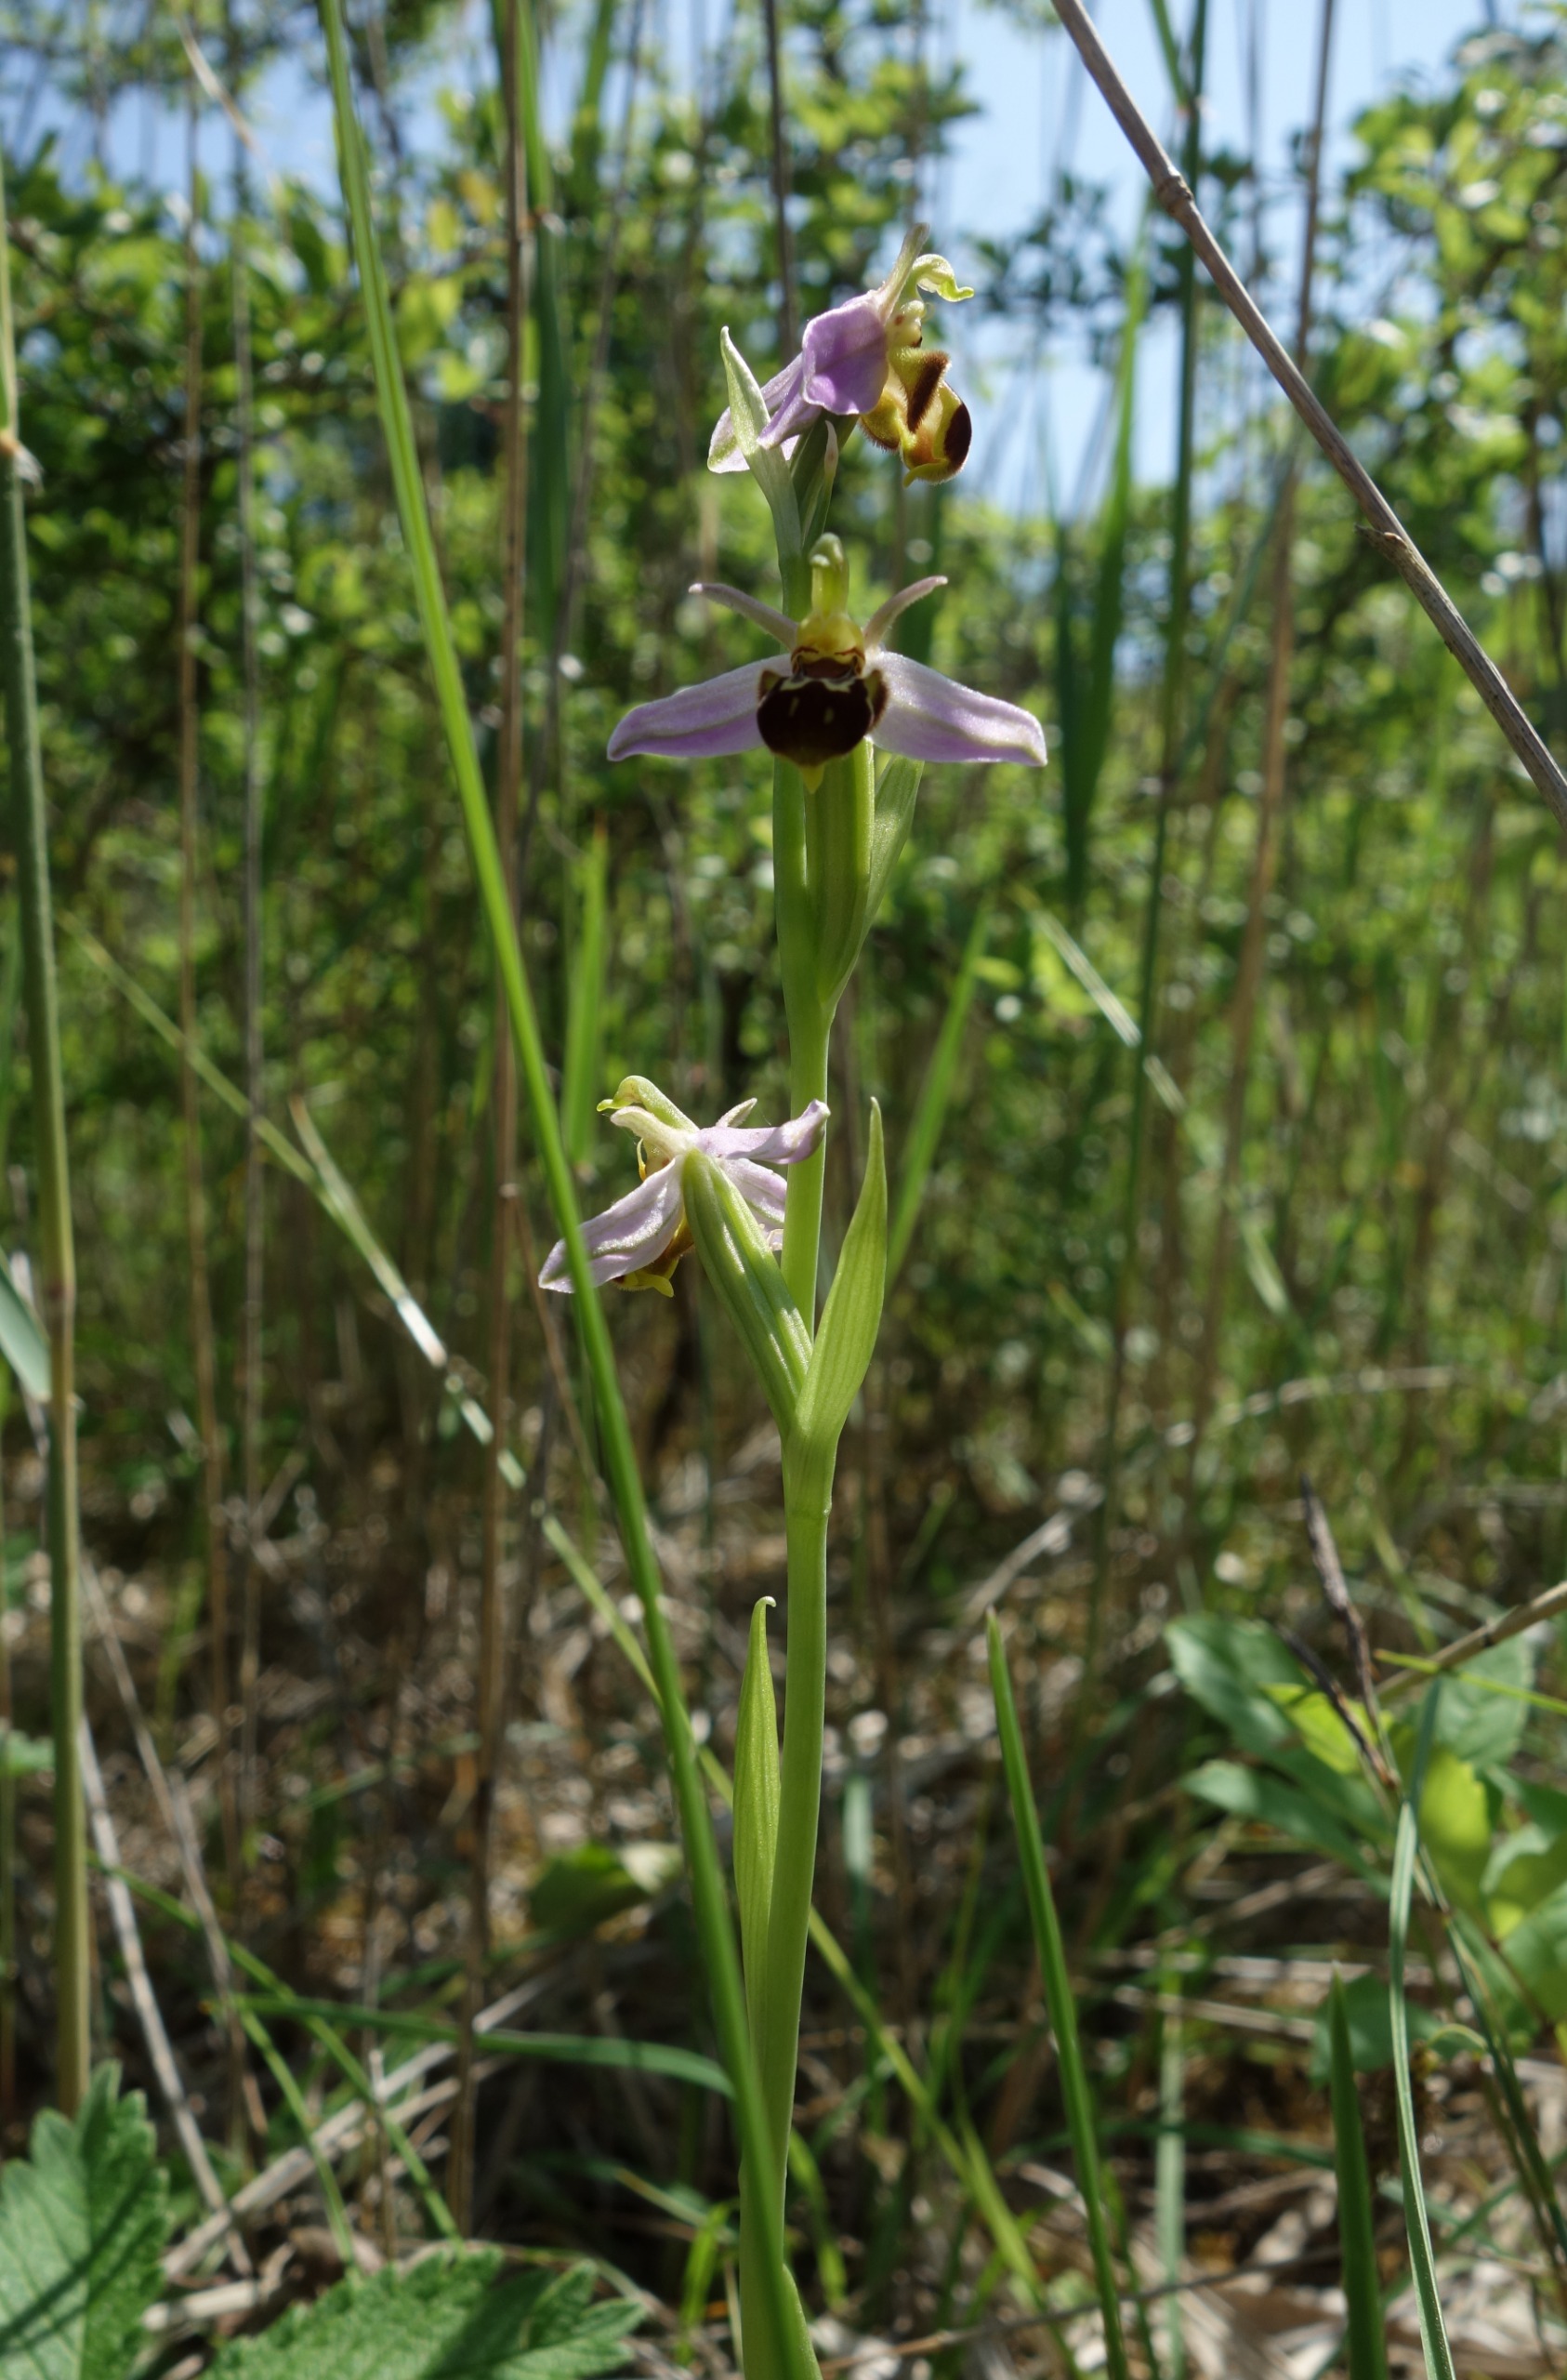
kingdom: Plantae
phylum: Tracheophyta
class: Liliopsida
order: Asparagales
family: Orchidaceae
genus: Ophrys
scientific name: Ophrys apifera
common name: Biblomst
